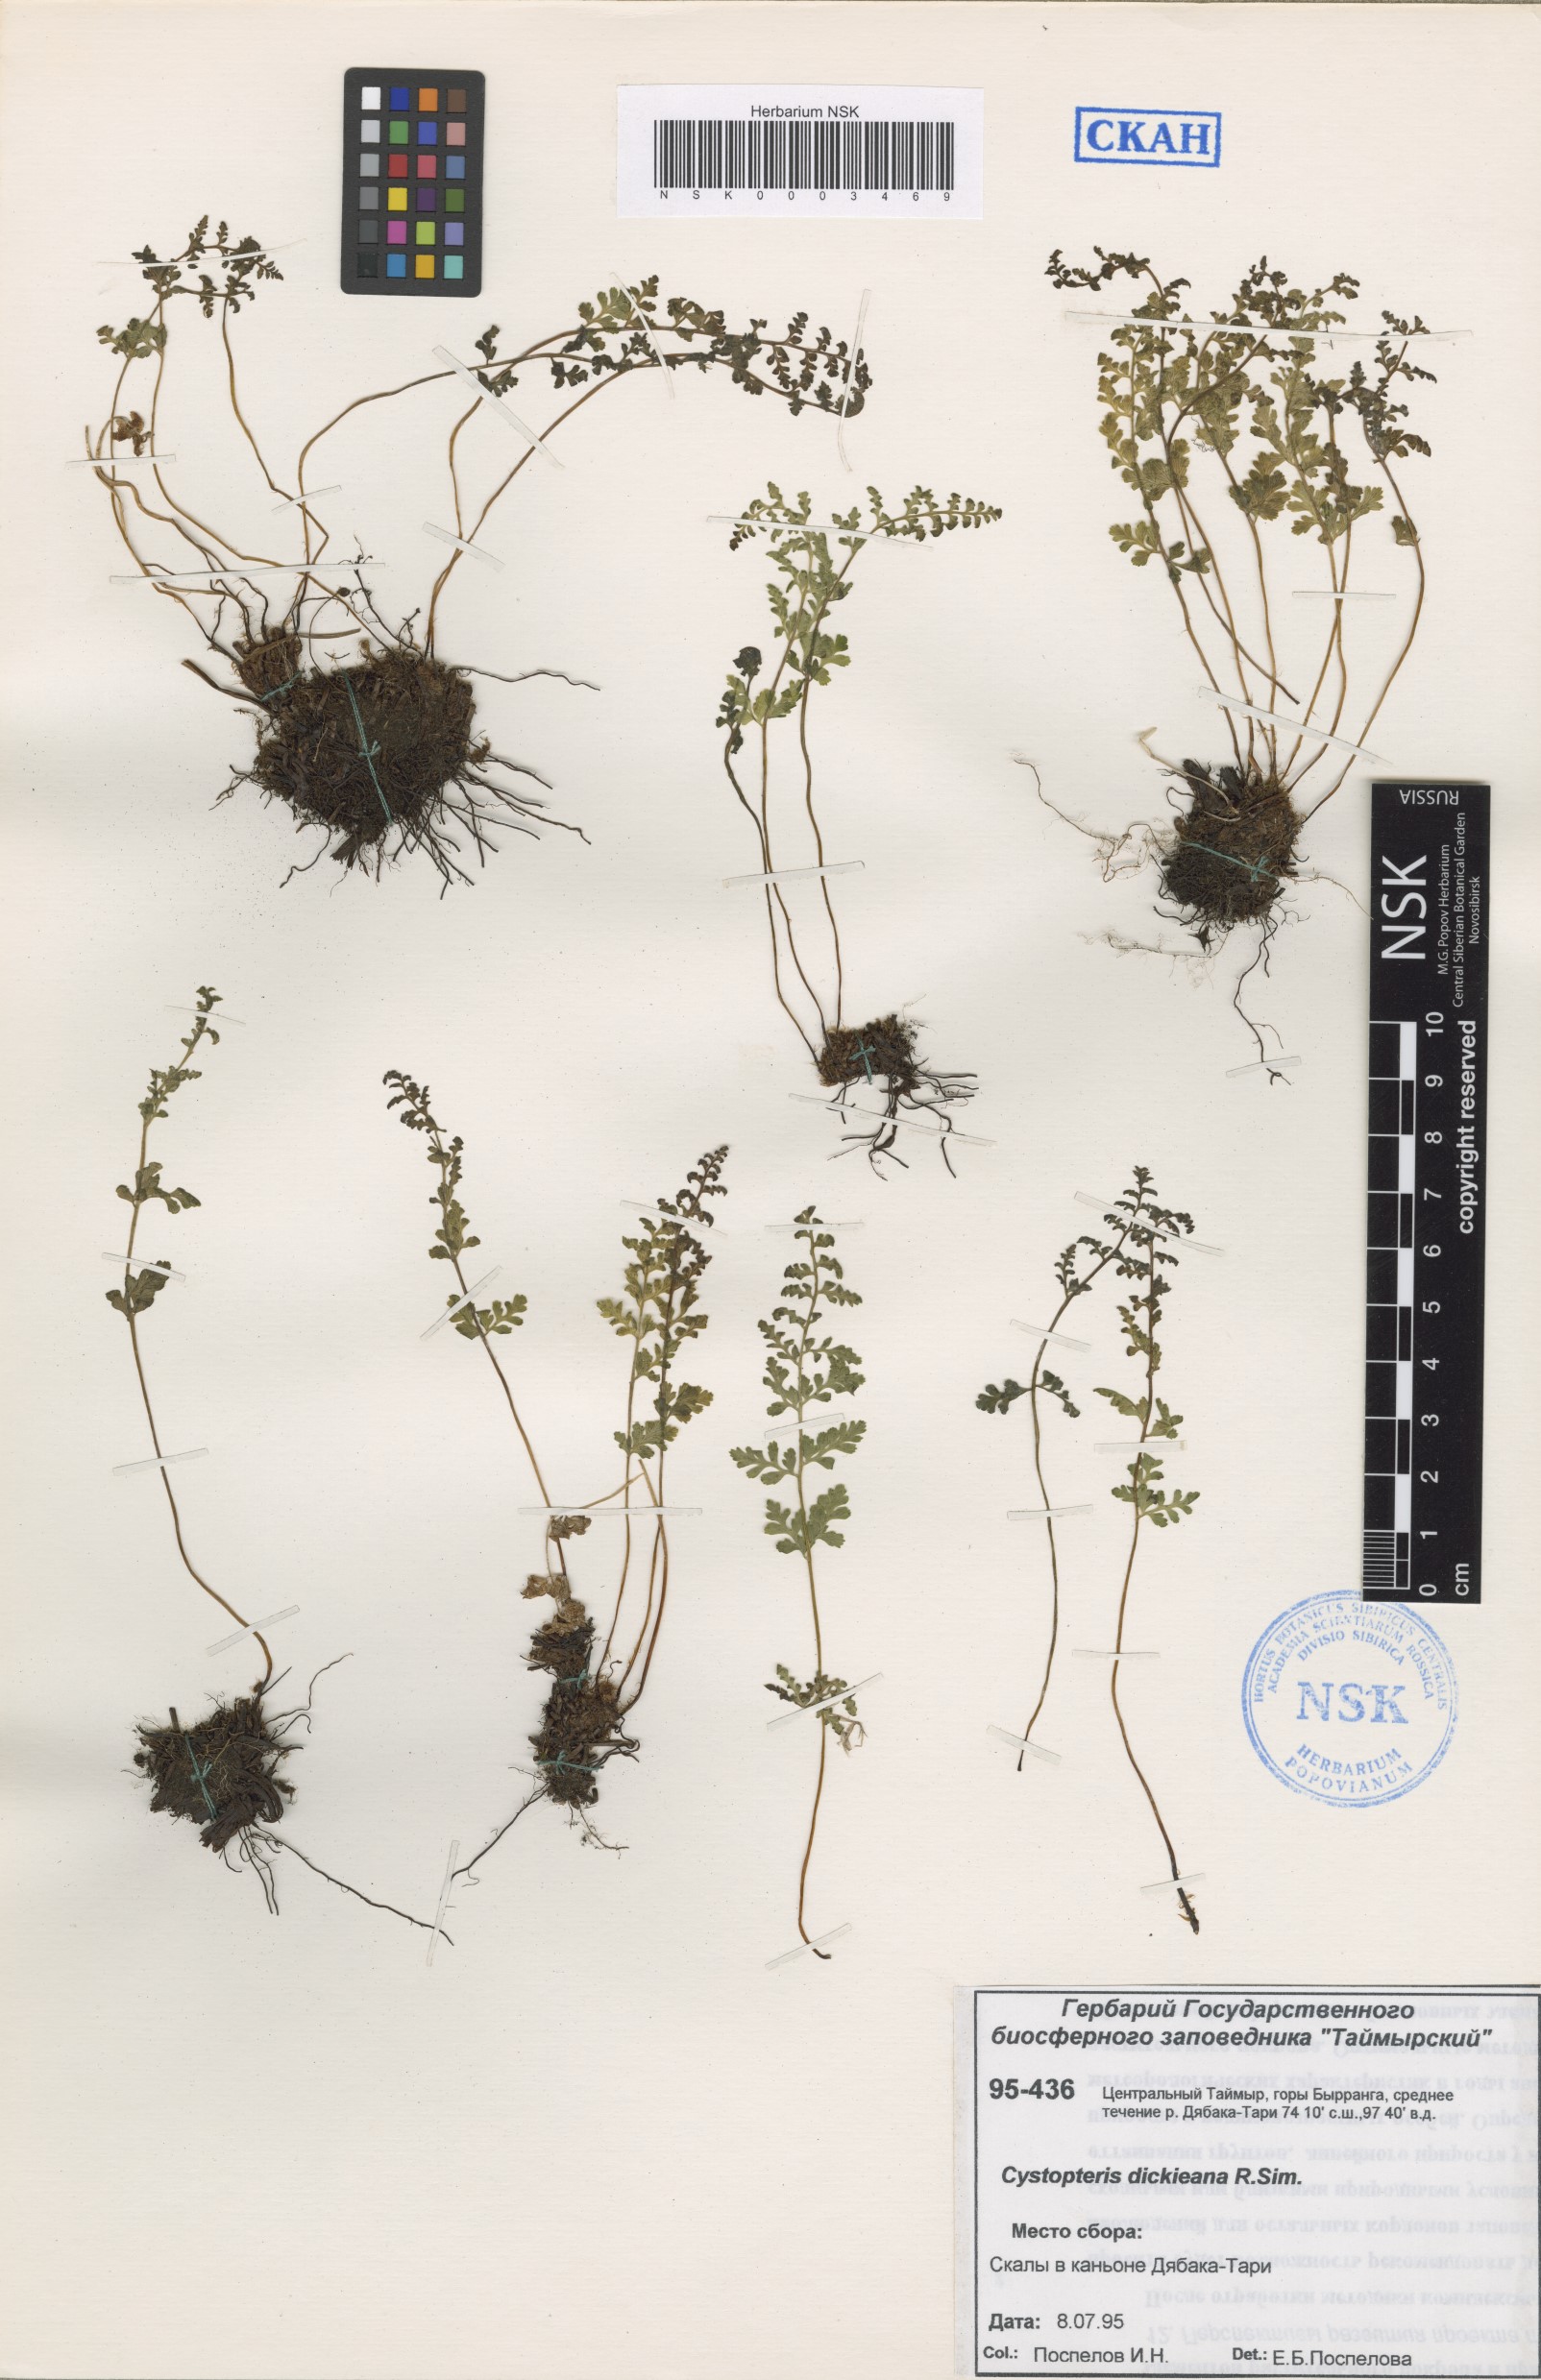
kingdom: Plantae
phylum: Tracheophyta
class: Polypodiopsida
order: Polypodiales
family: Cystopteridaceae
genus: Cystopteris
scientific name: Cystopteris dickieana
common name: Dickie's bladder-fern
